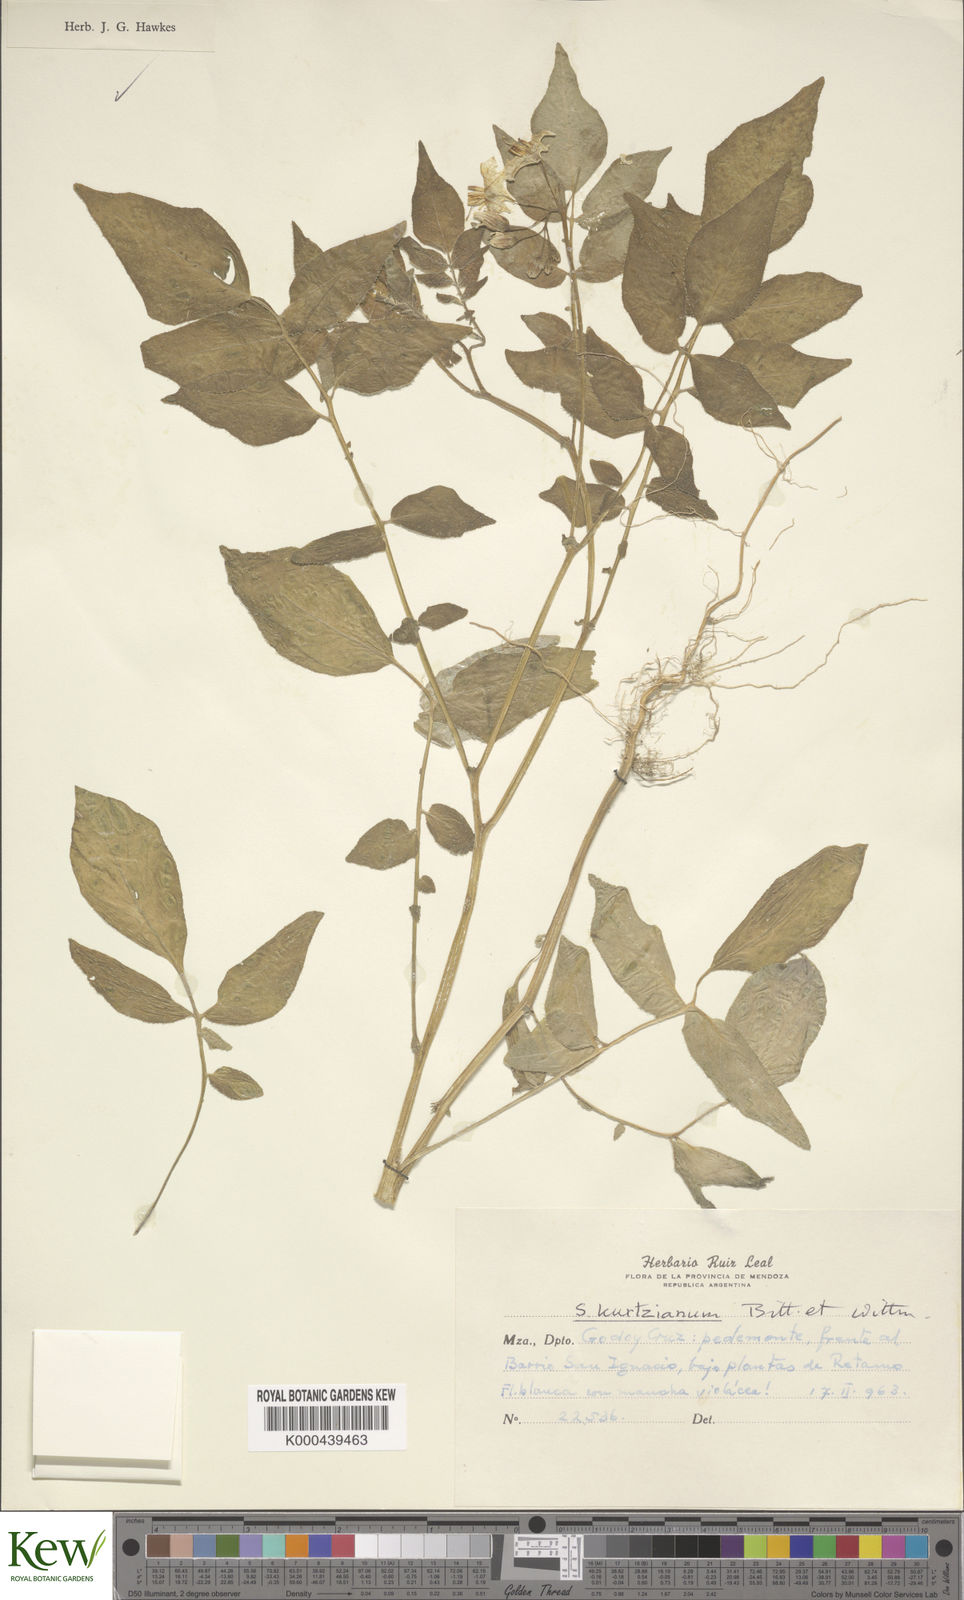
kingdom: Plantae
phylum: Tracheophyta
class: Magnoliopsida
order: Solanales
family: Solanaceae
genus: Solanum
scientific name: Solanum kurtzianum
